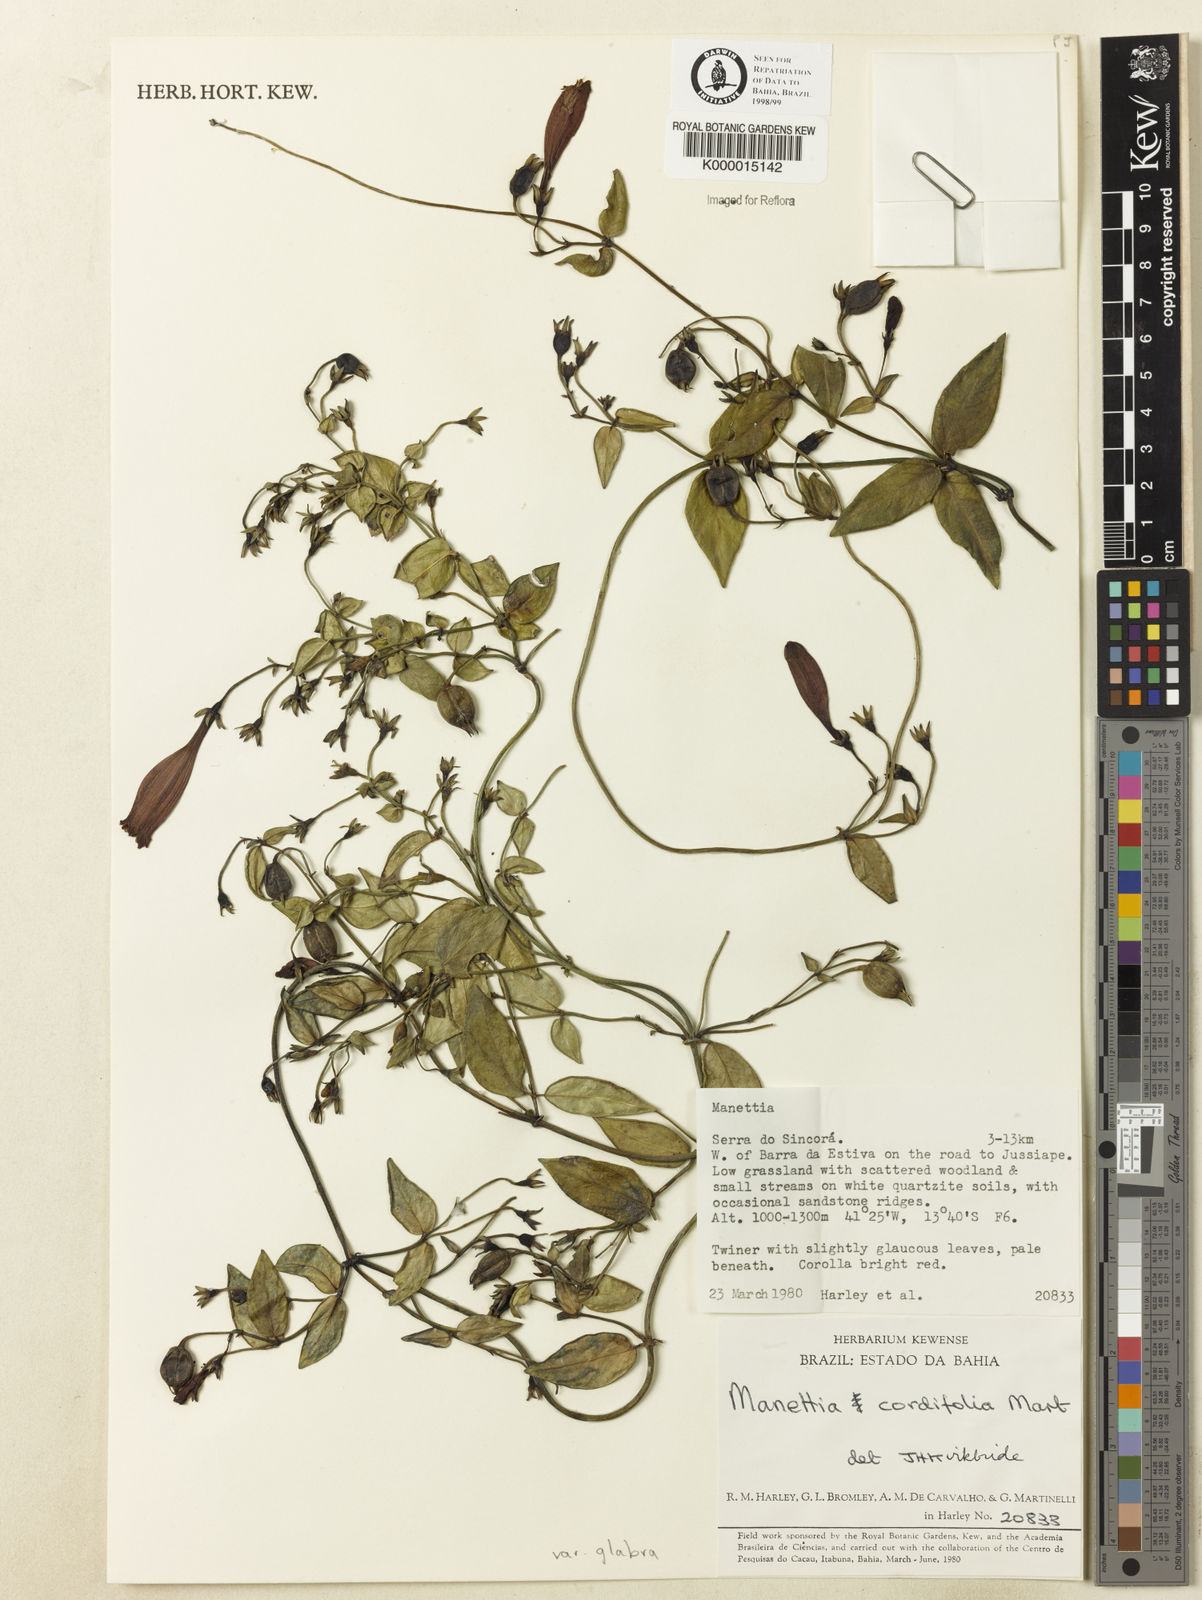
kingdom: Plantae
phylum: Tracheophyta
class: Magnoliopsida
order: Gentianales
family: Rubiaceae
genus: Manettia
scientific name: Manettia cordifolia
